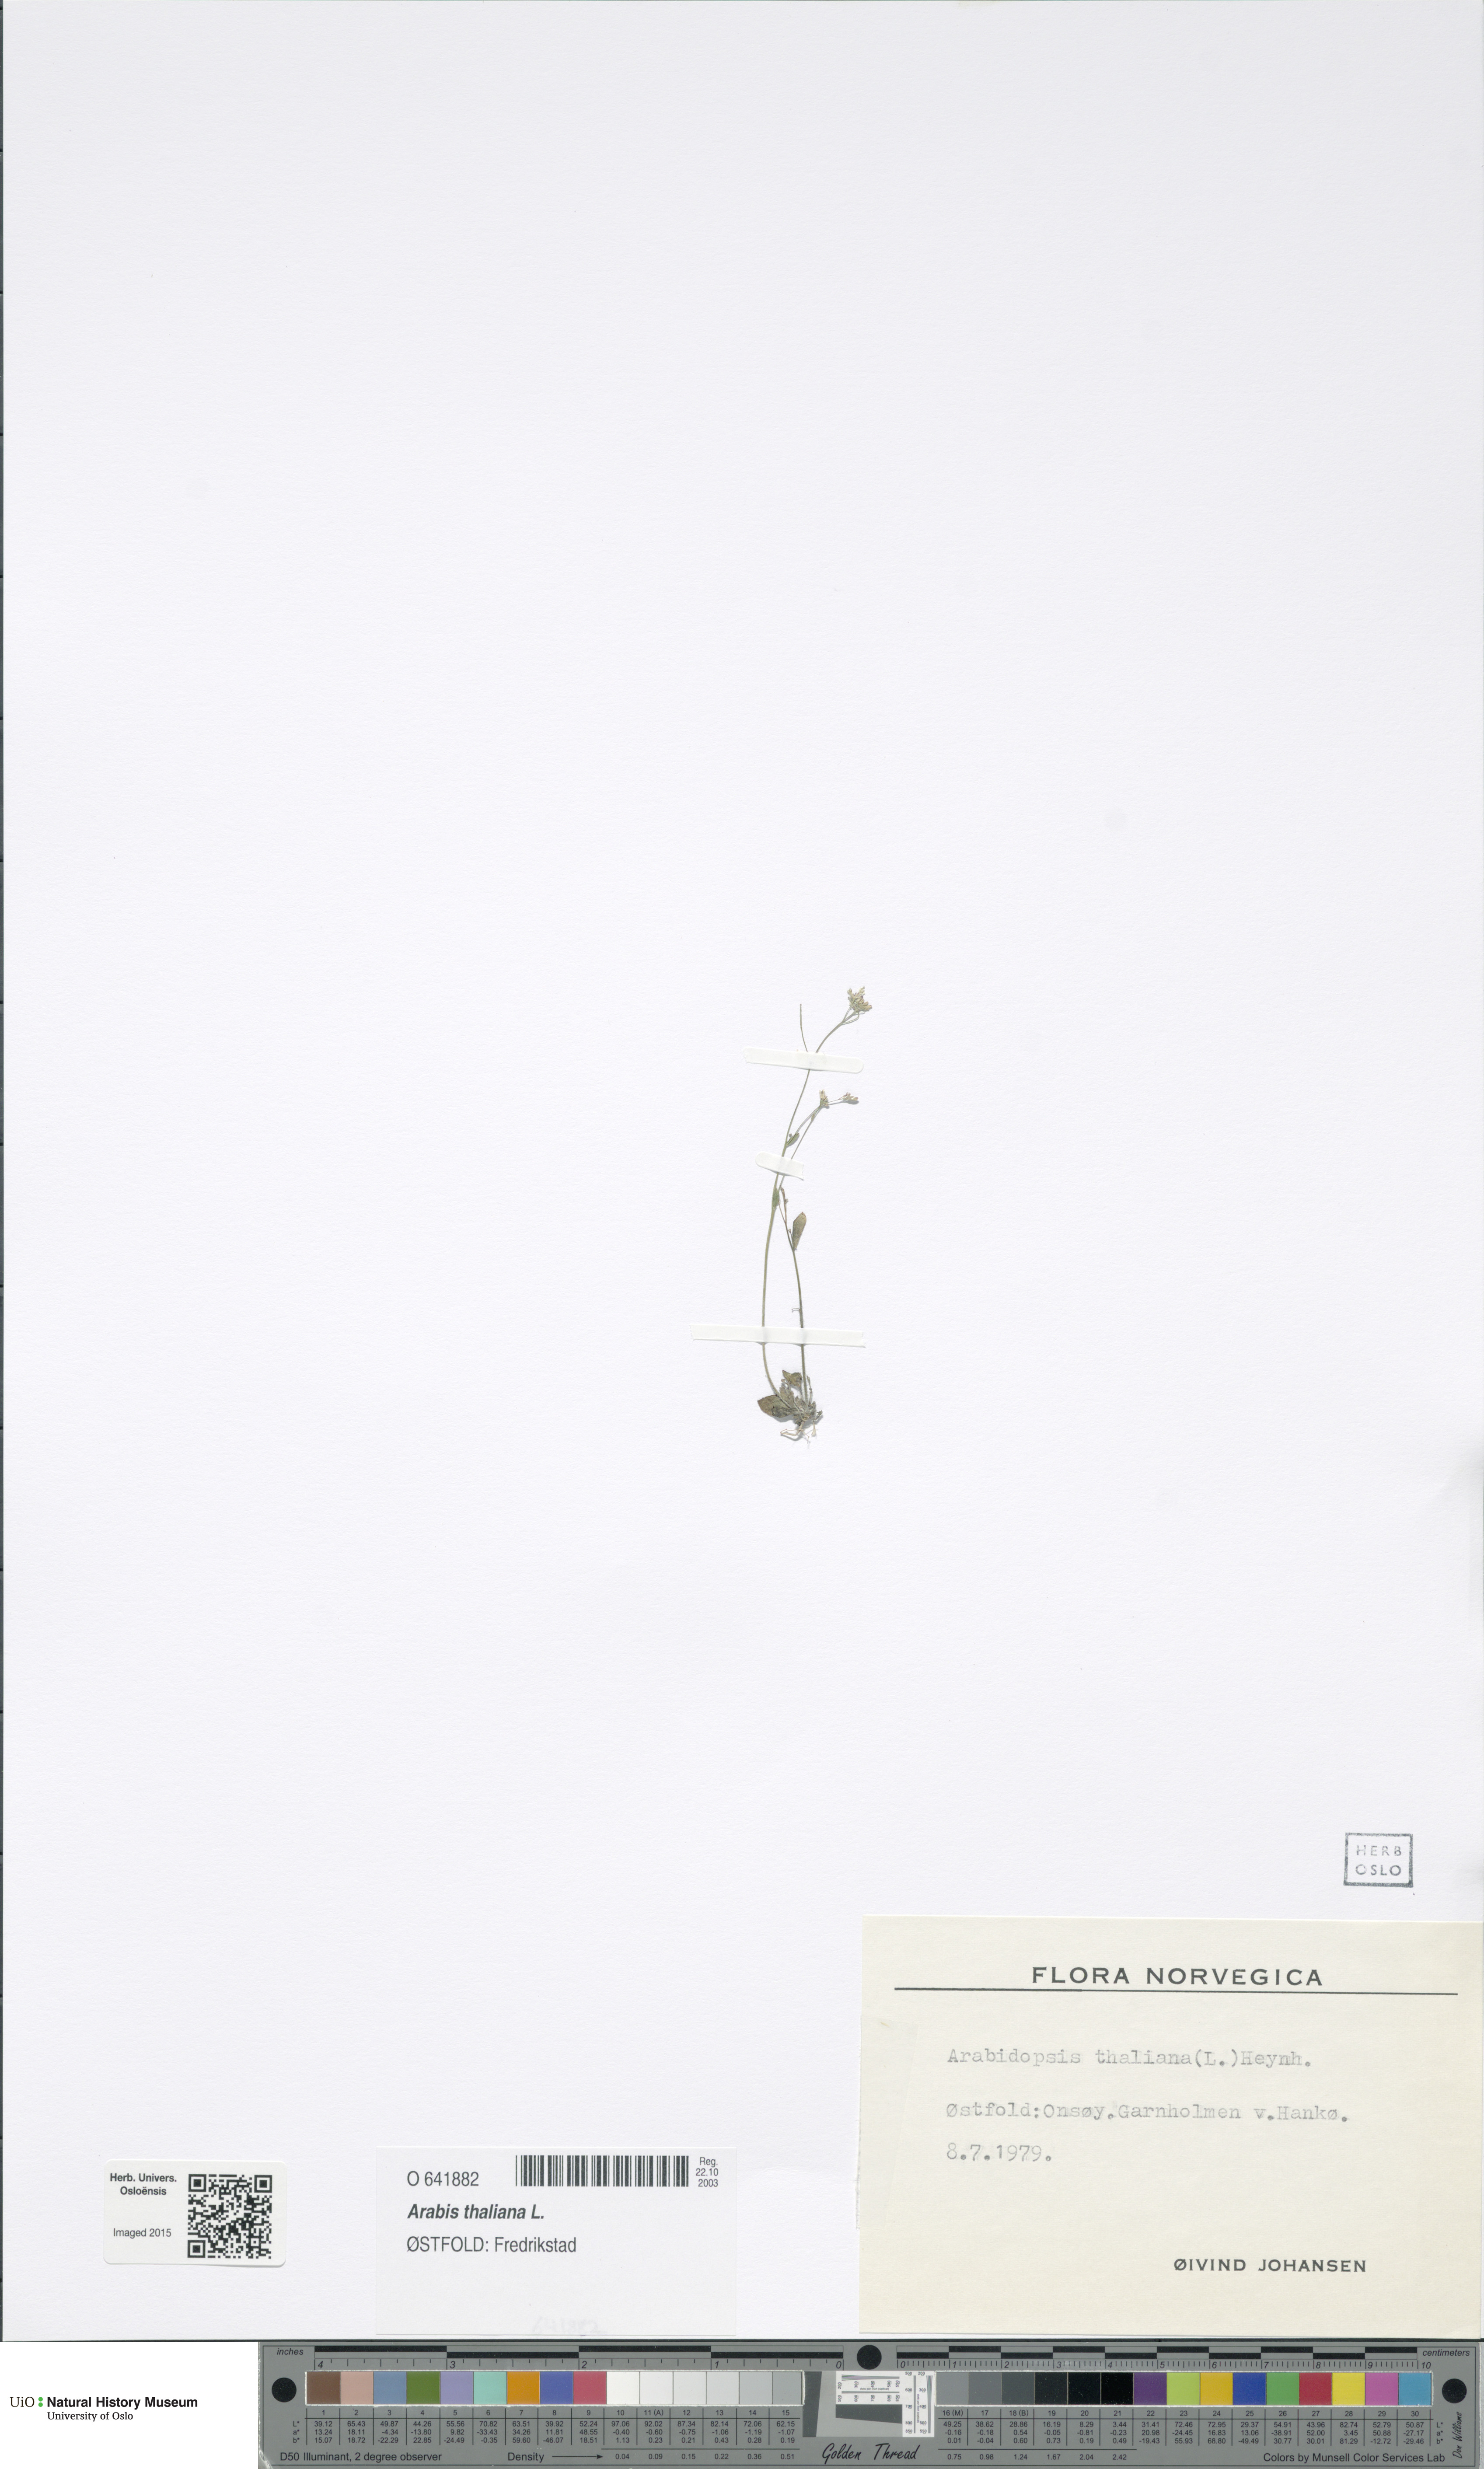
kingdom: Plantae
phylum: Tracheophyta
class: Magnoliopsida
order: Brassicales
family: Brassicaceae
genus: Arabidopsis
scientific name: Arabidopsis thaliana
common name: Thale cress
